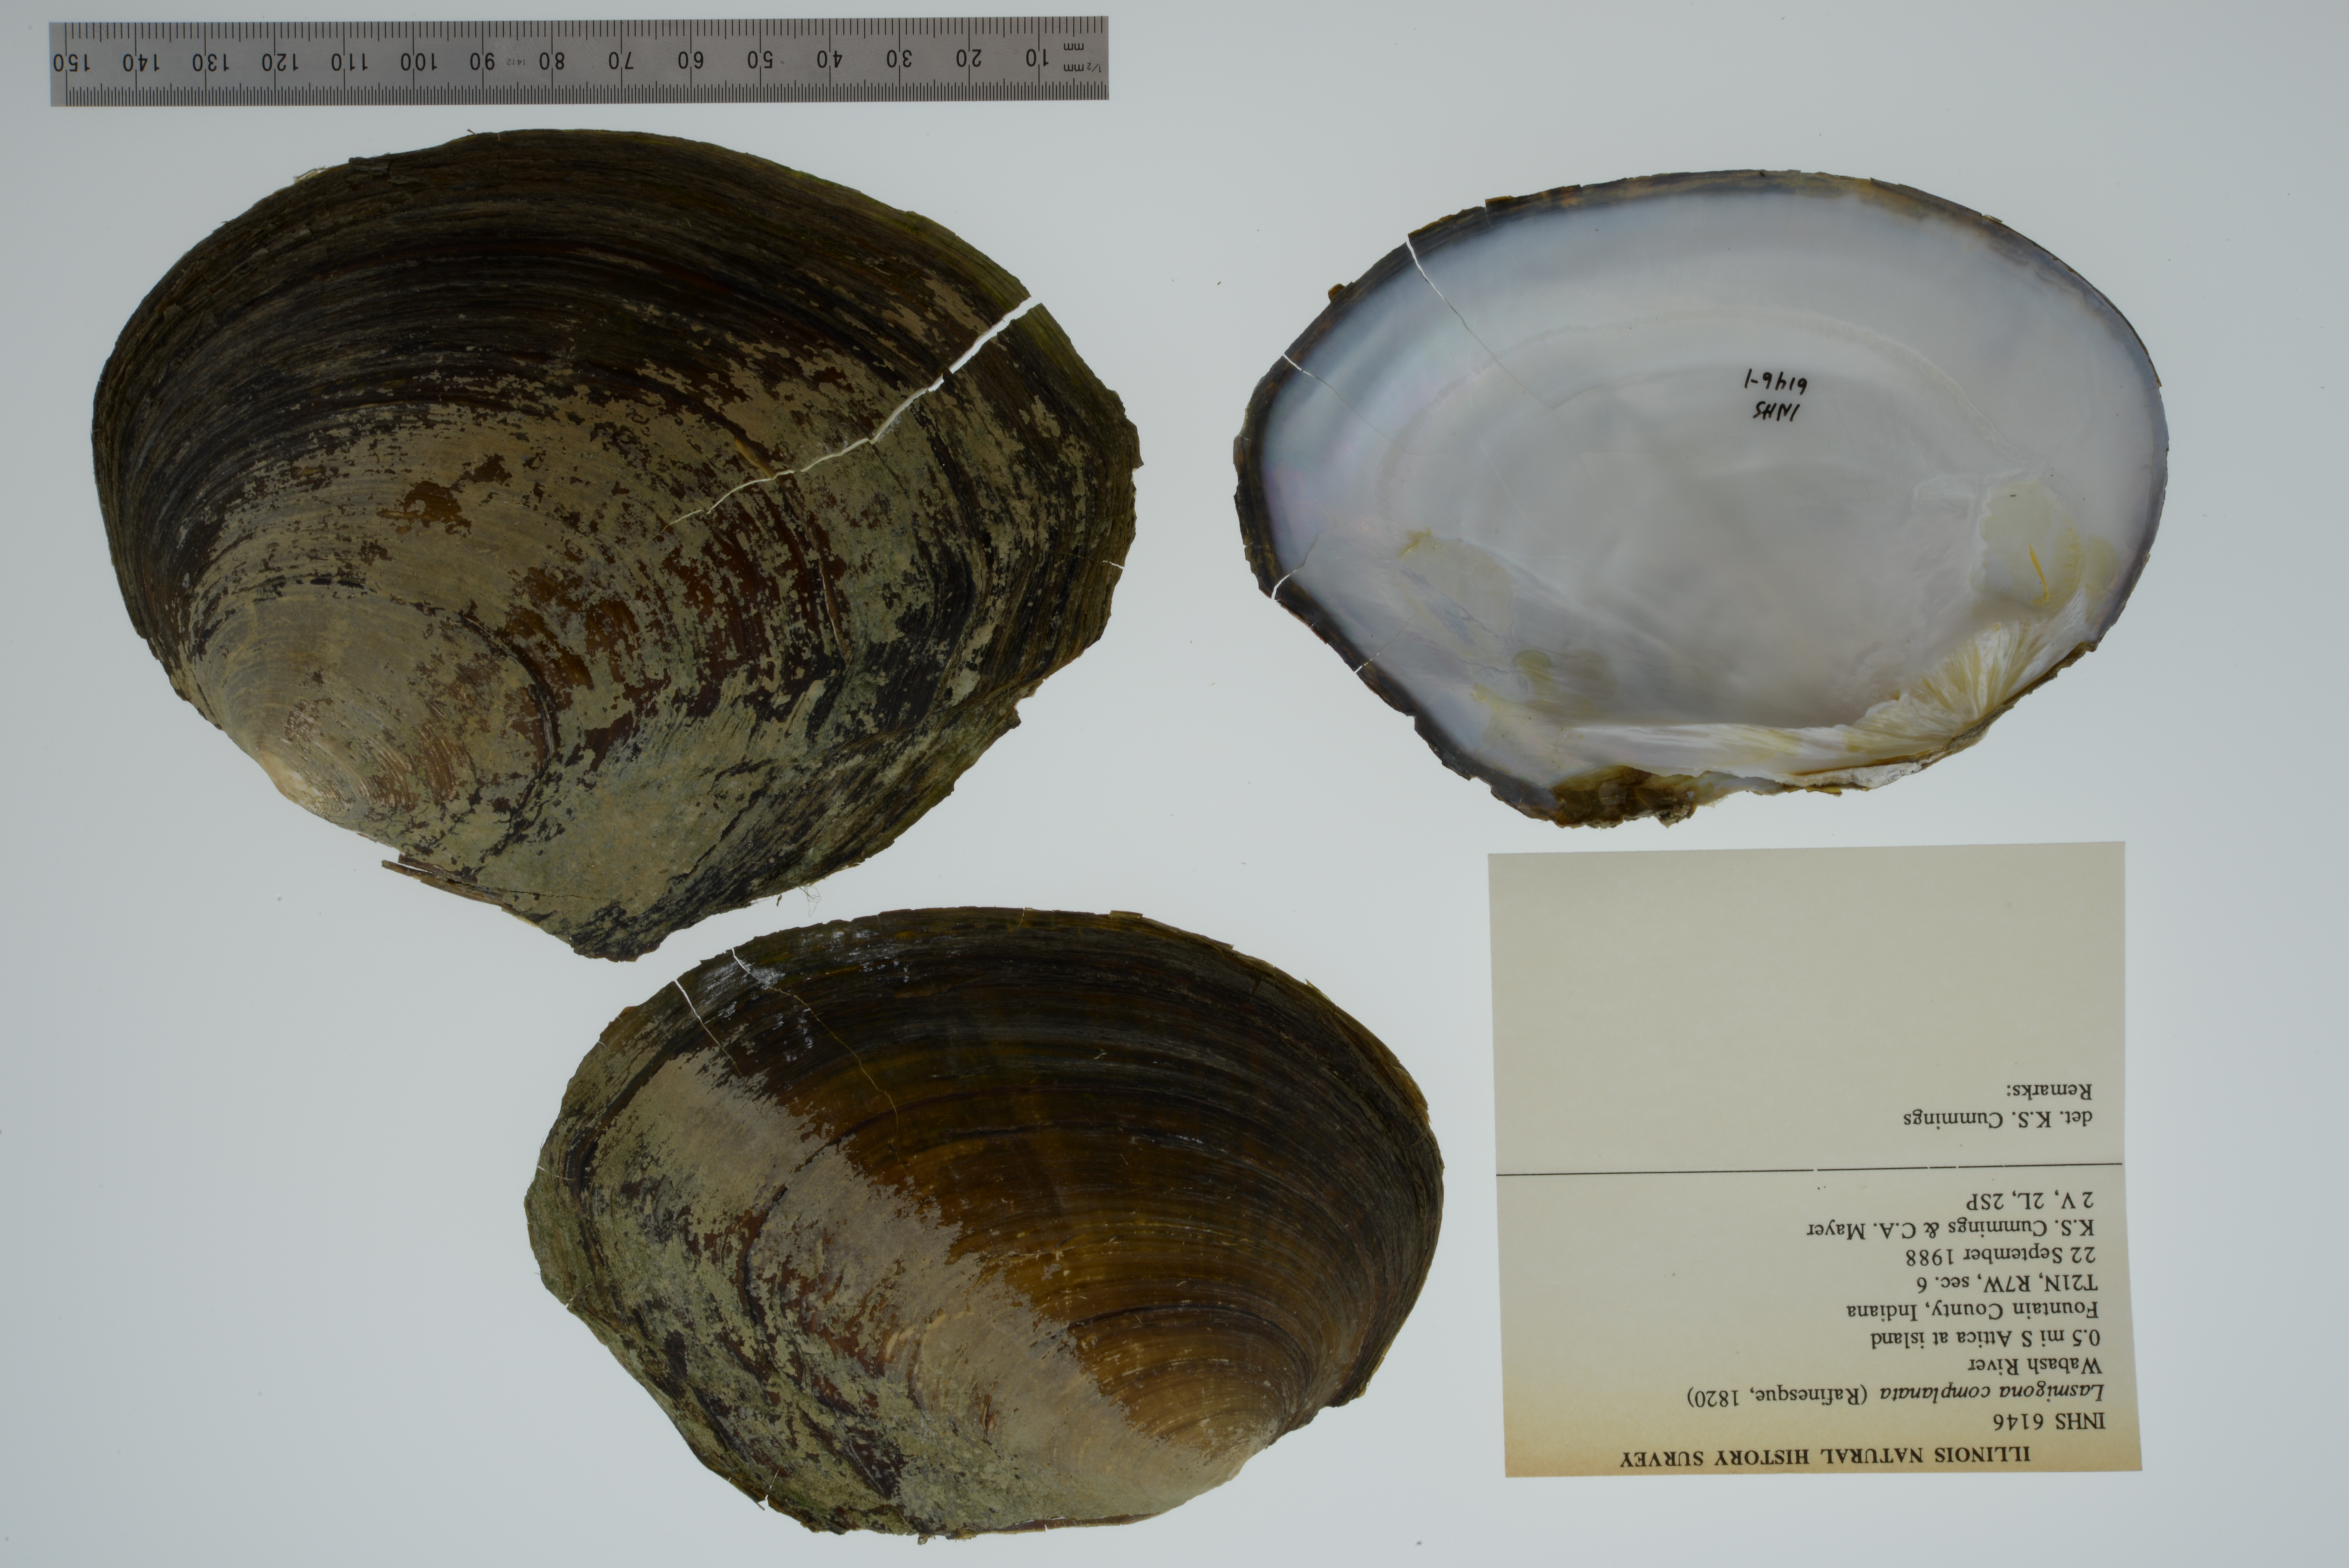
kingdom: Animalia
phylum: Mollusca
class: Bivalvia
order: Unionida
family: Unionidae
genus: Lasmigona
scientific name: Lasmigona complanata
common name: White heelsplitter
